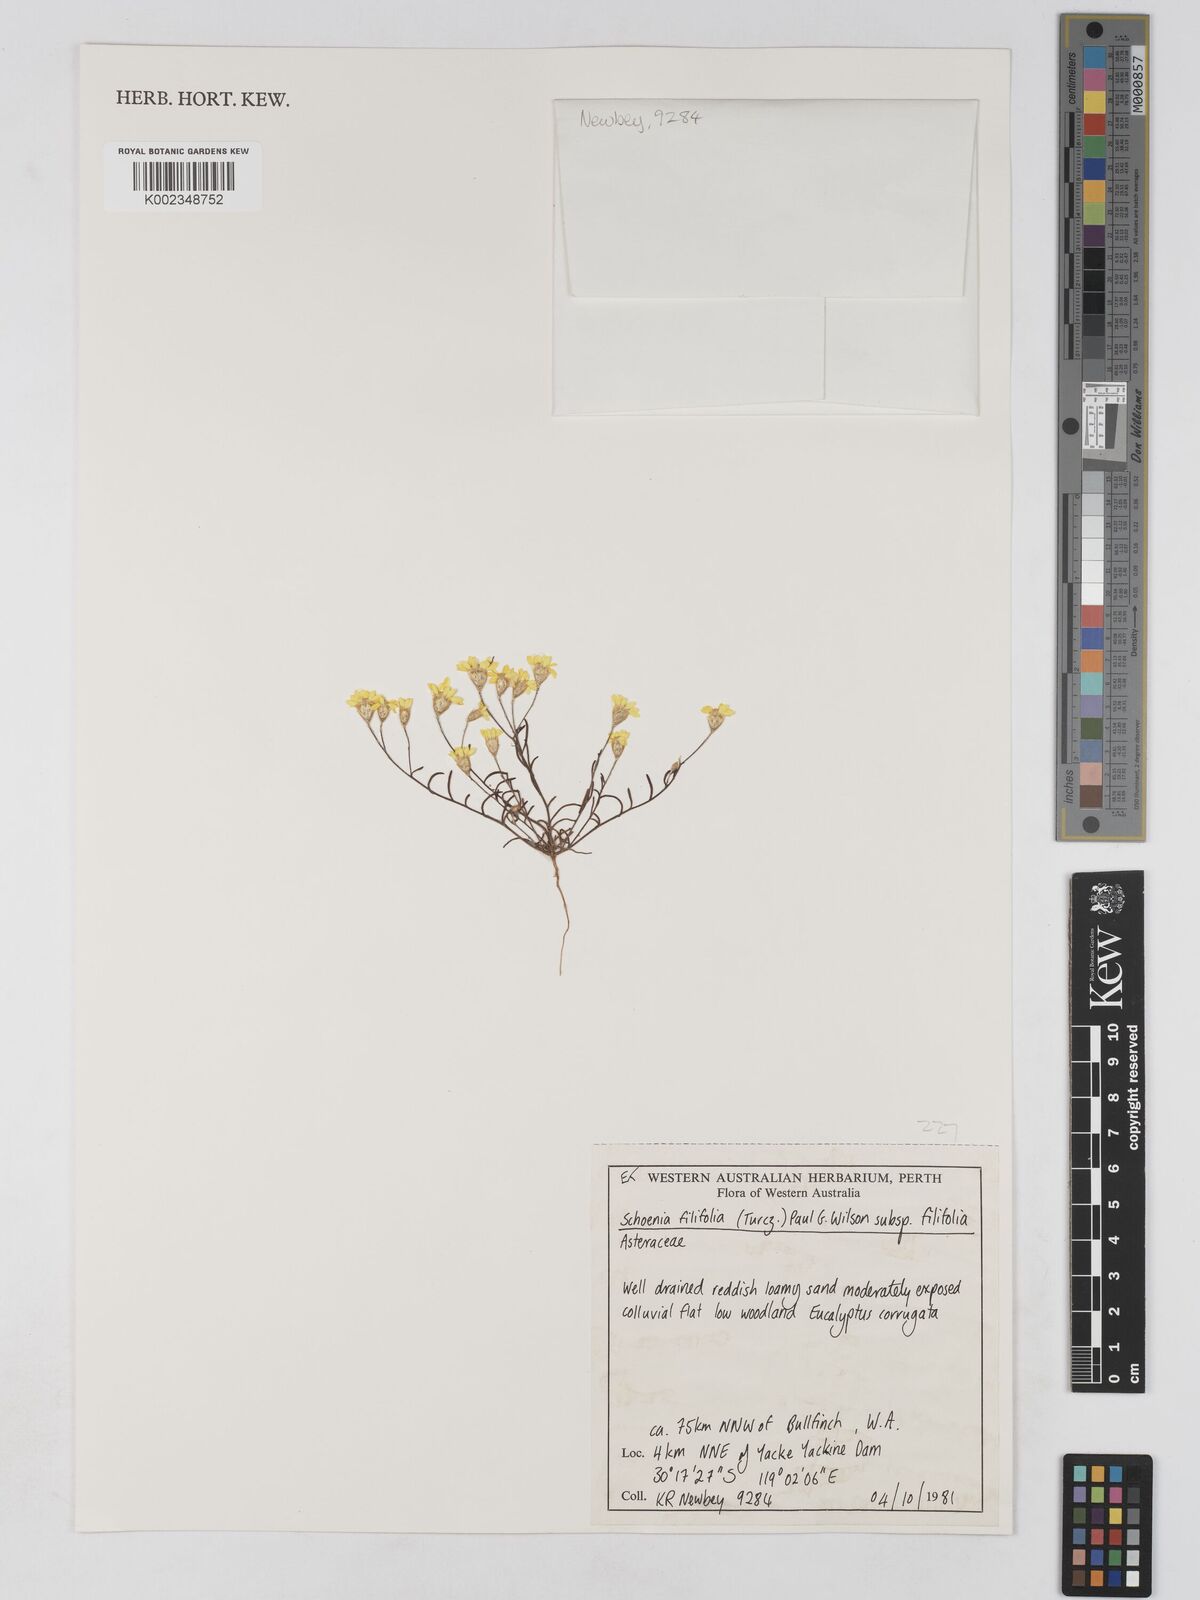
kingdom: Plantae
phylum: Tracheophyta
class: Magnoliopsida
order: Asterales
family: Asteraceae
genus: Schoenia
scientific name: Schoenia filifolia
